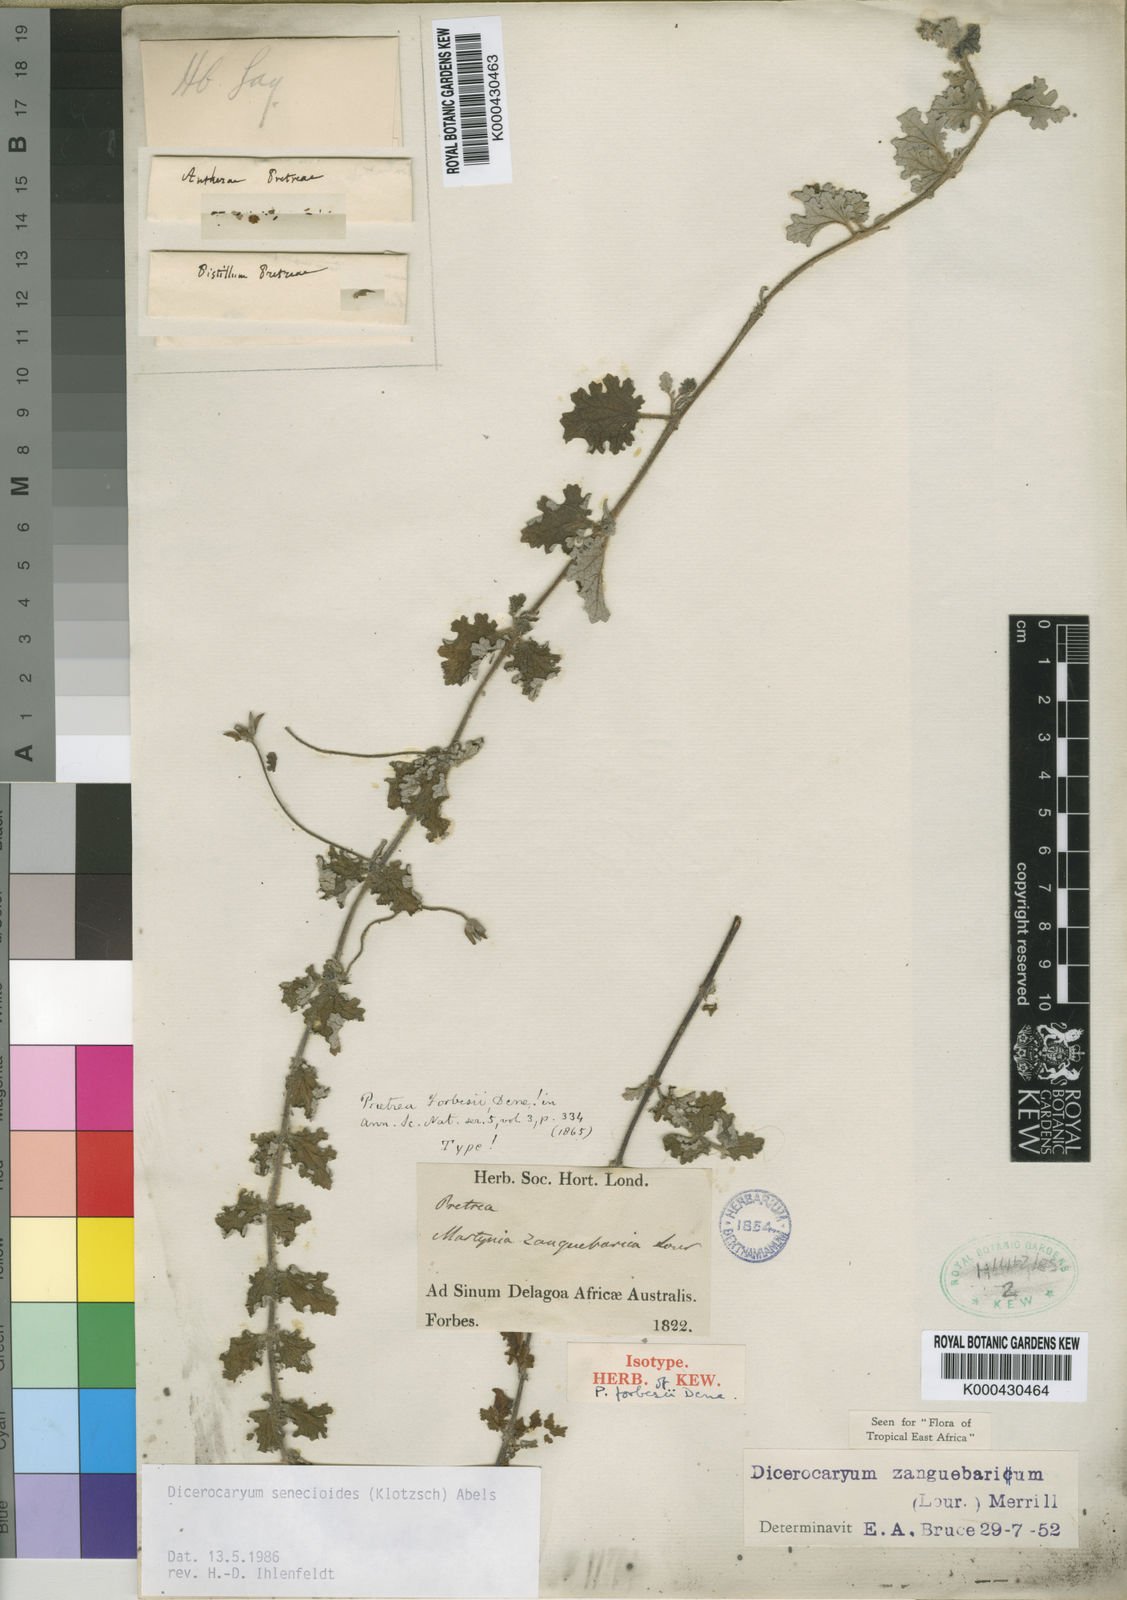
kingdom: Plantae
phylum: Tracheophyta
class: Magnoliopsida
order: Lamiales
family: Pedaliaceae
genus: Dicerocaryum
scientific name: Dicerocaryum senecioides
